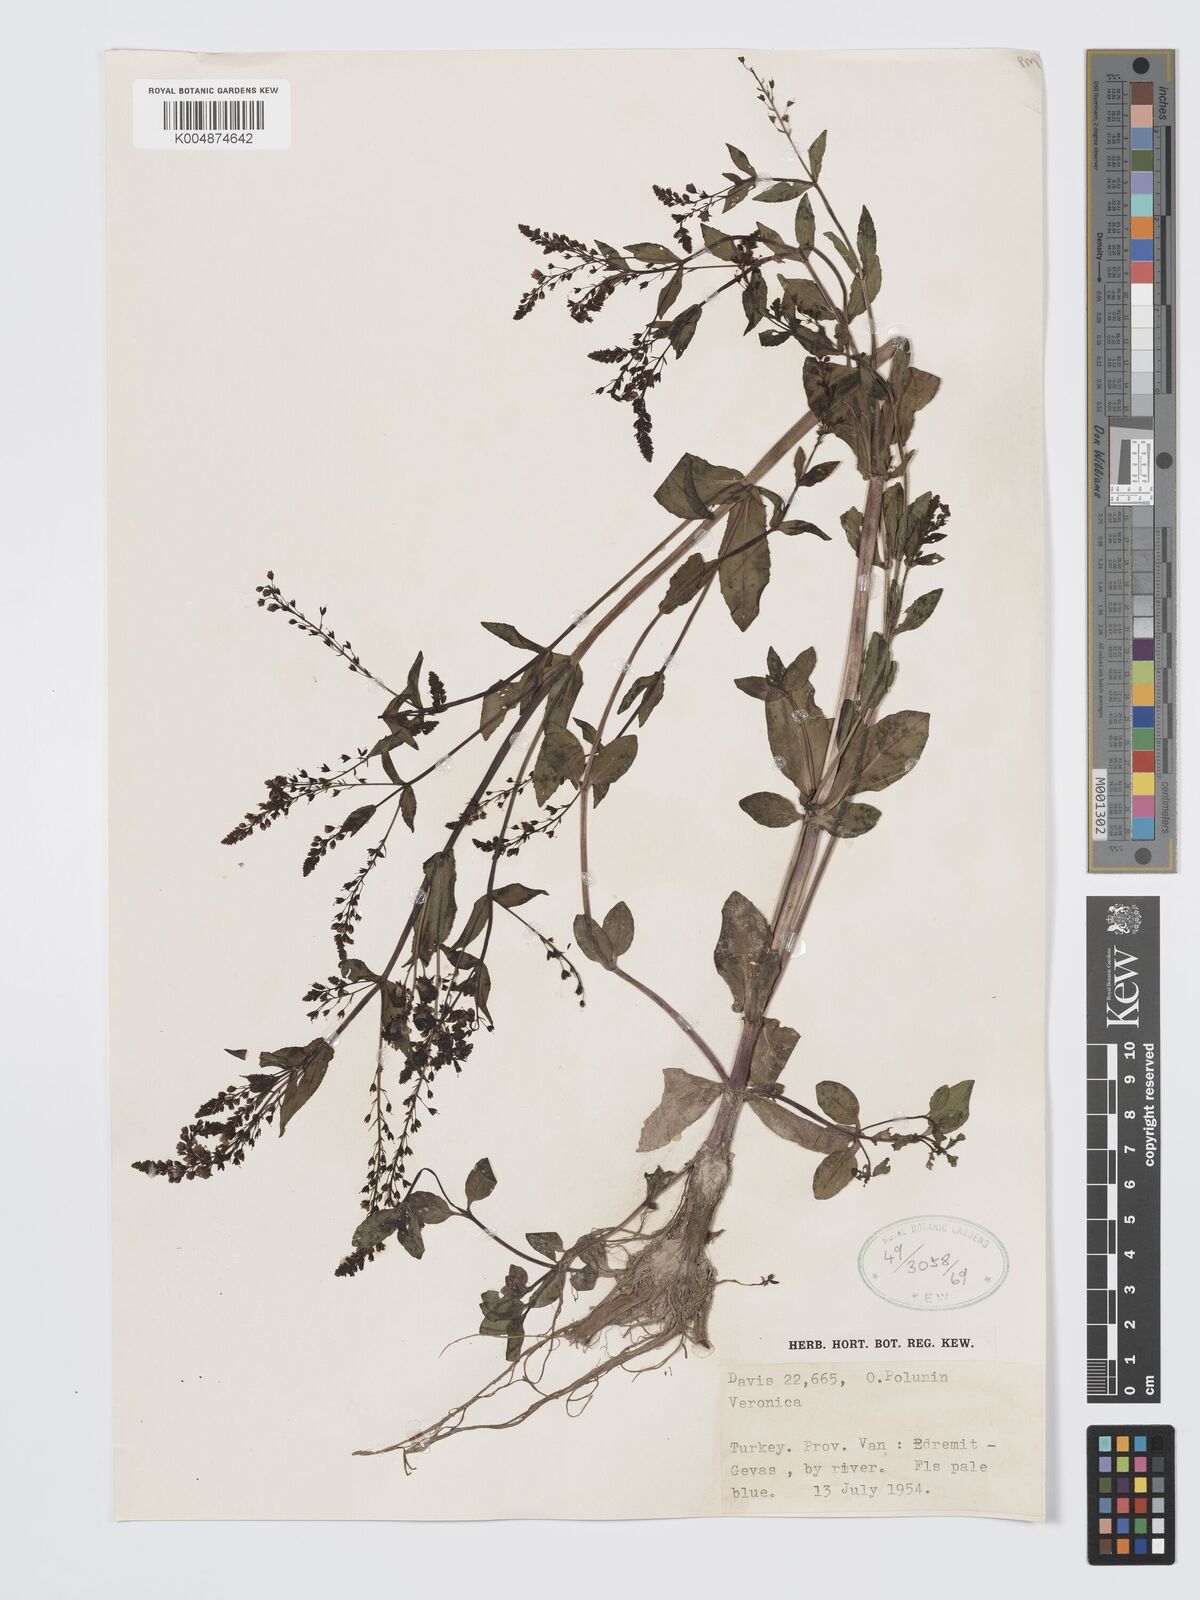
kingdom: Plantae
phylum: Tracheophyta
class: Magnoliopsida
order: Lamiales
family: Plantaginaceae
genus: Veronica
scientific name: Veronica
